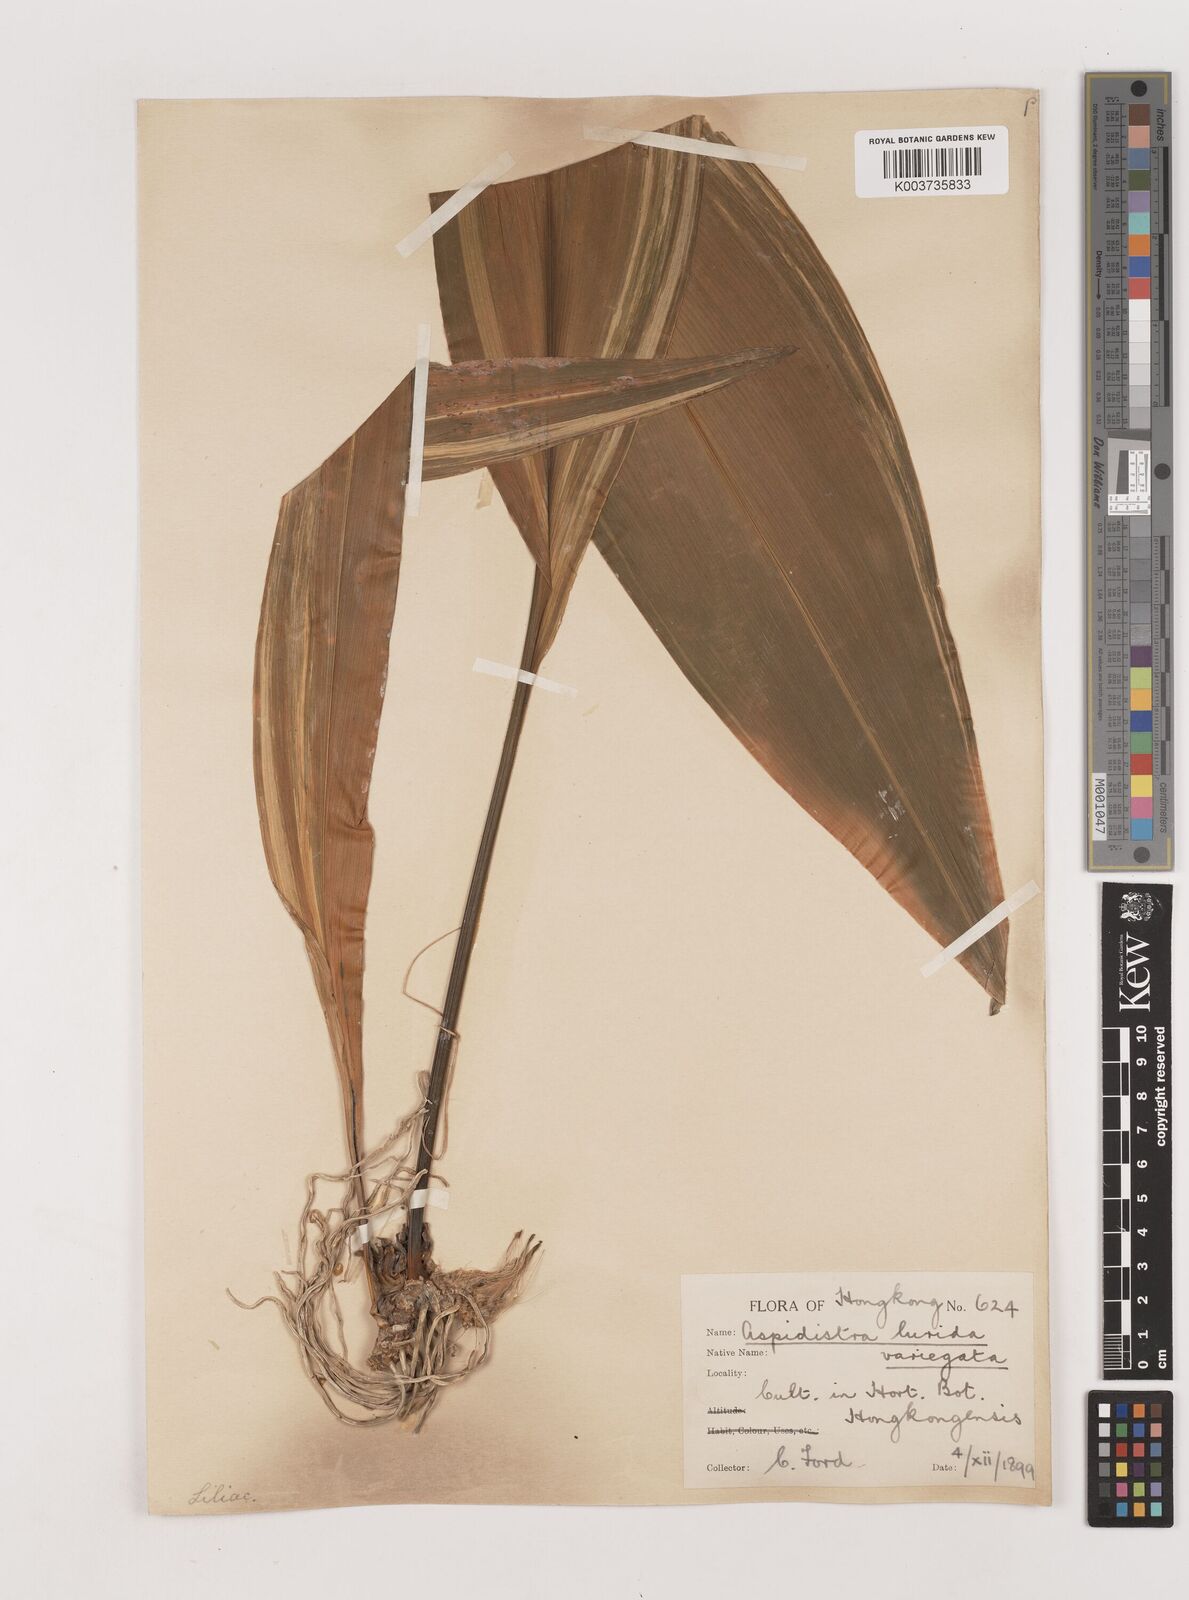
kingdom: Plantae
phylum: Tracheophyta
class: Liliopsida
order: Asparagales
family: Asparagaceae
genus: Aspidistra
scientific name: Aspidistra lurida
